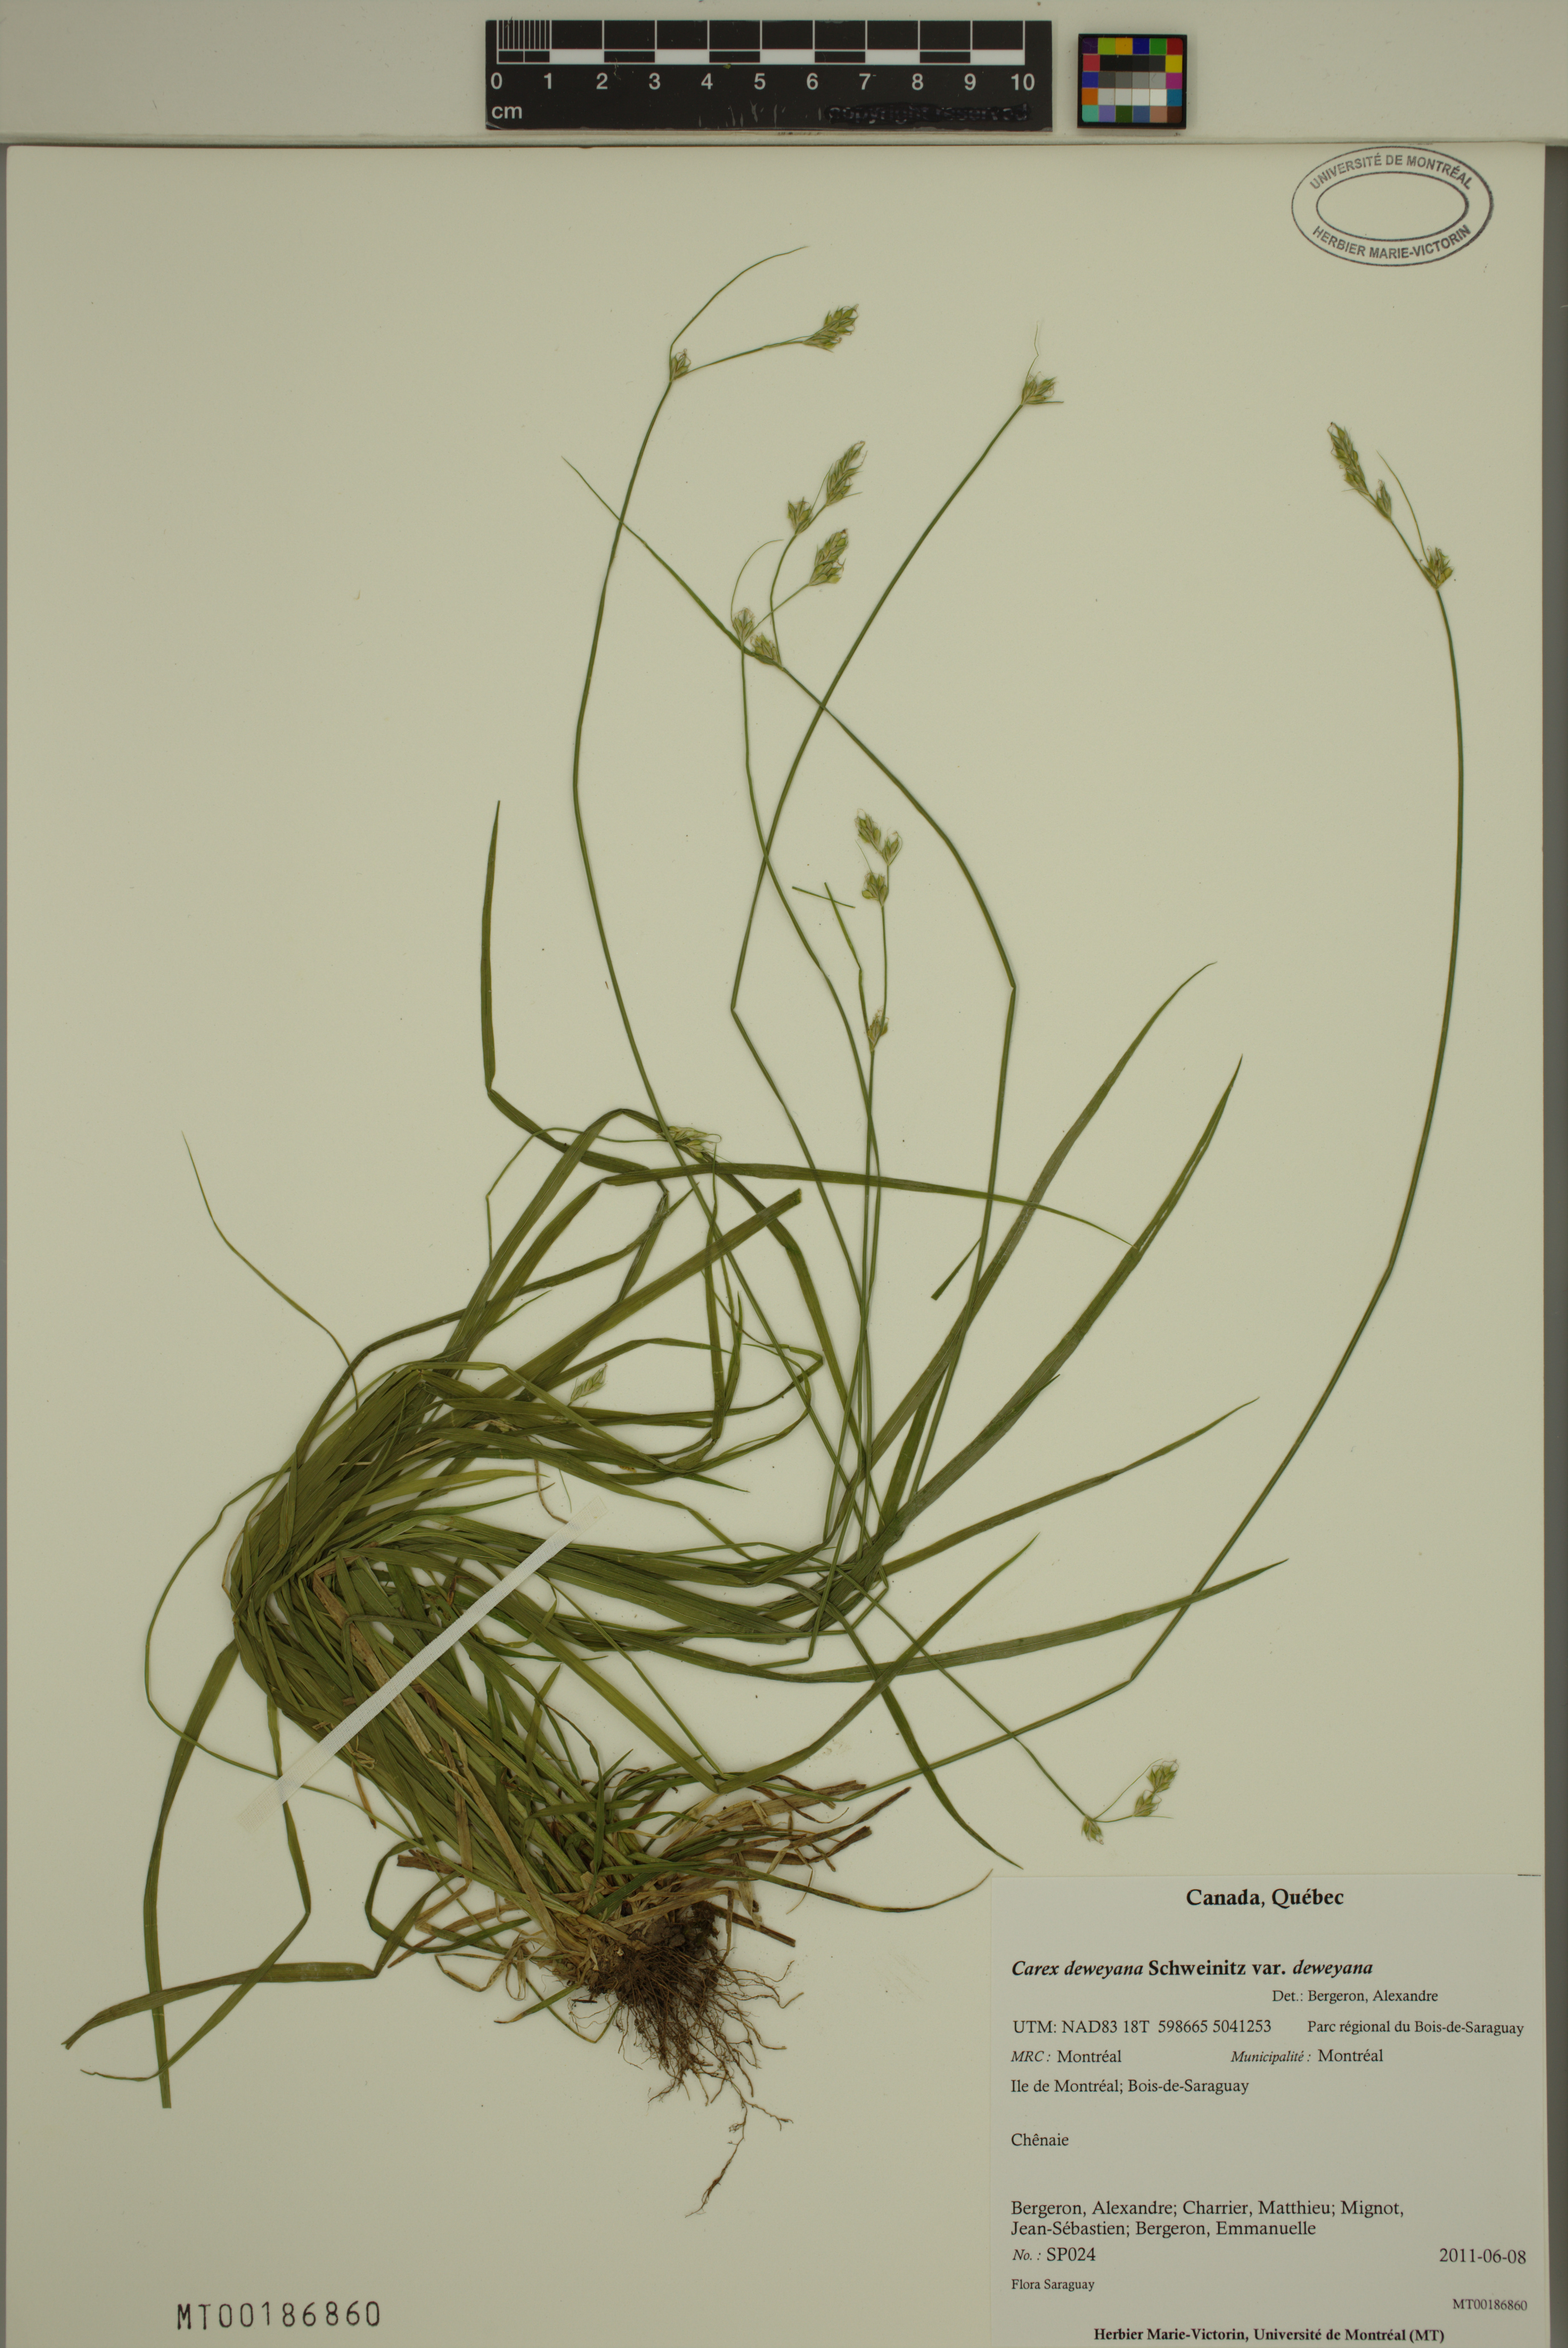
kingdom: Plantae
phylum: Tracheophyta
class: Liliopsida
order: Poales
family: Cyperaceae
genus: Carex
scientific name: Carex deweyana
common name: Dewey's sedge
